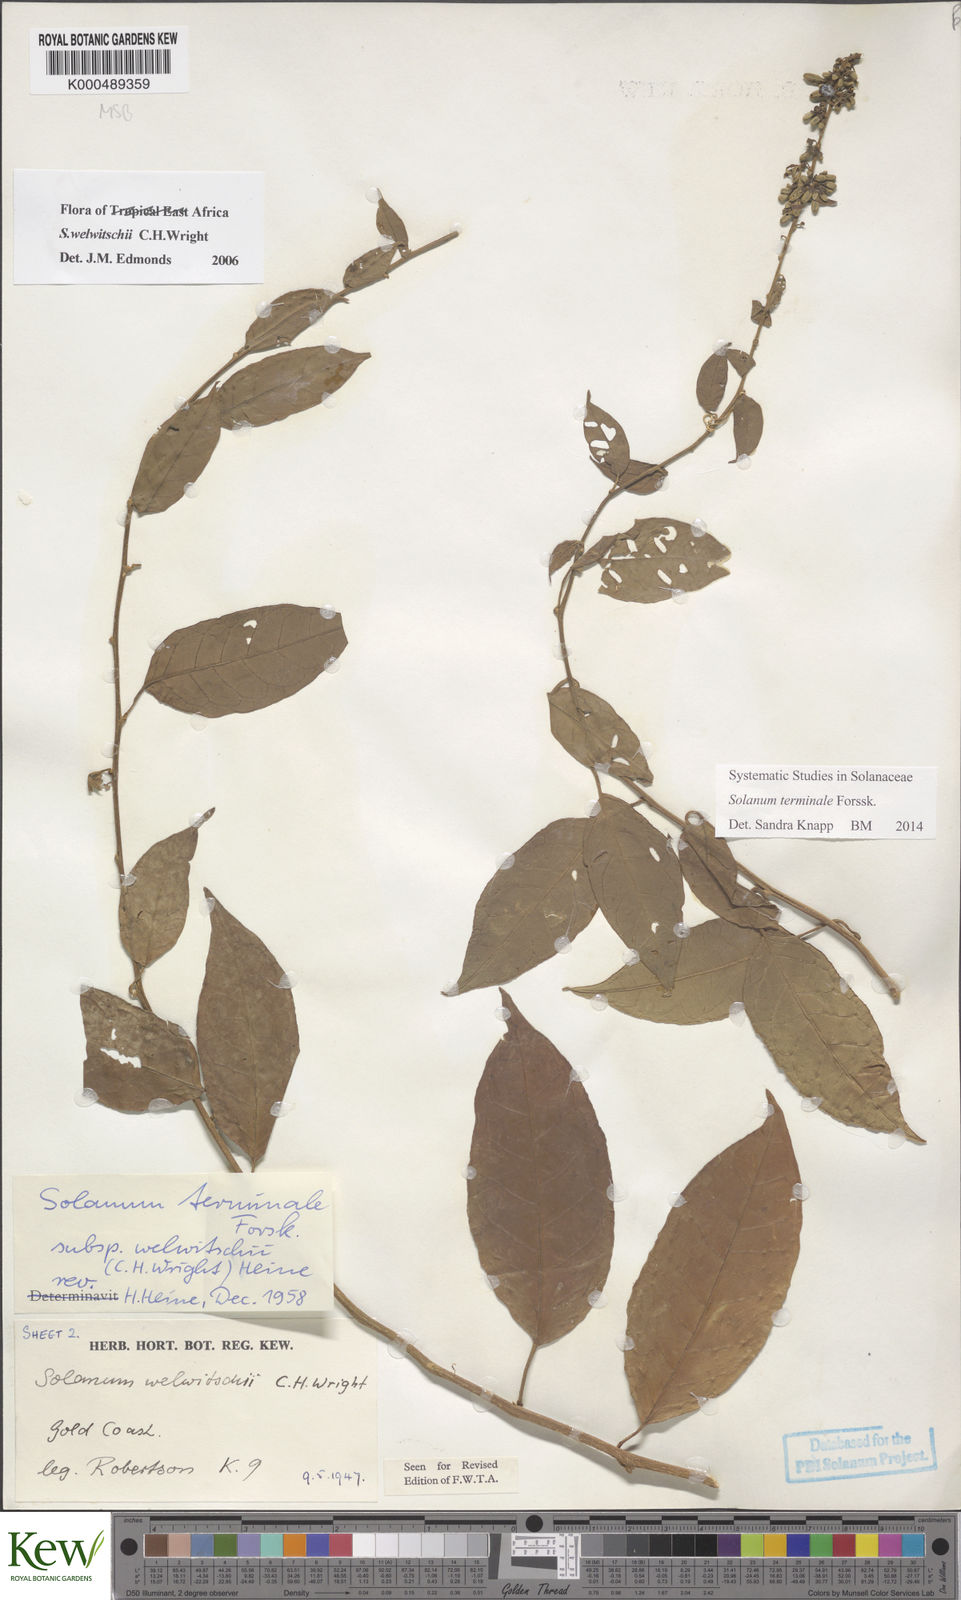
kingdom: Plantae
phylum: Tracheophyta
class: Magnoliopsida
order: Solanales
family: Solanaceae
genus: Solanum
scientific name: Solanum terminale
